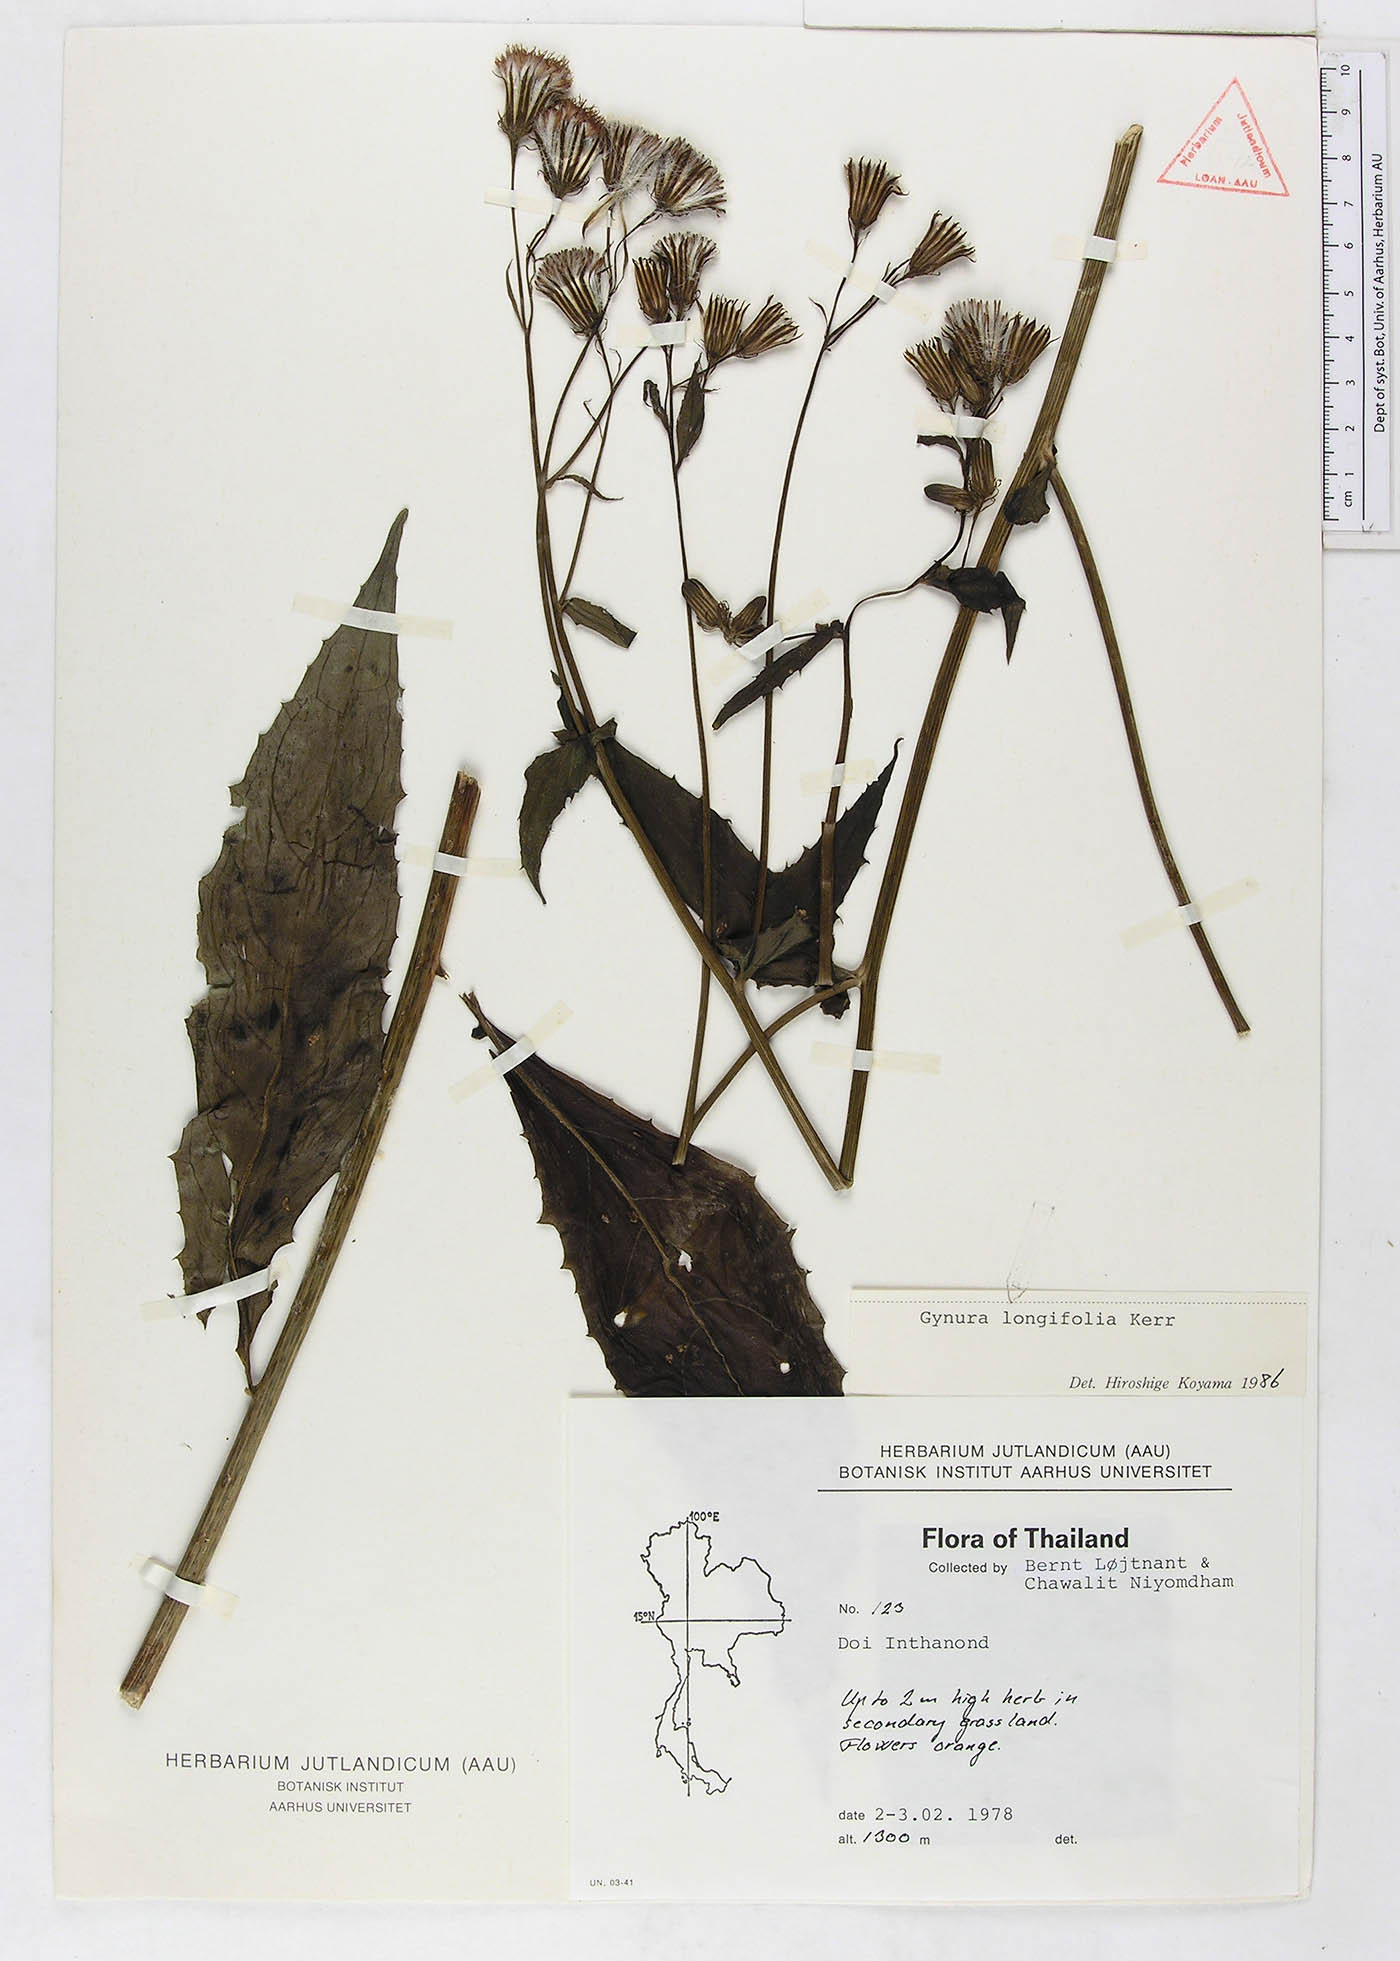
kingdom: Plantae
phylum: Tracheophyta
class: Magnoliopsida
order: Asterales
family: Asteraceae
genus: Gynura
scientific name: Gynura longifolia
